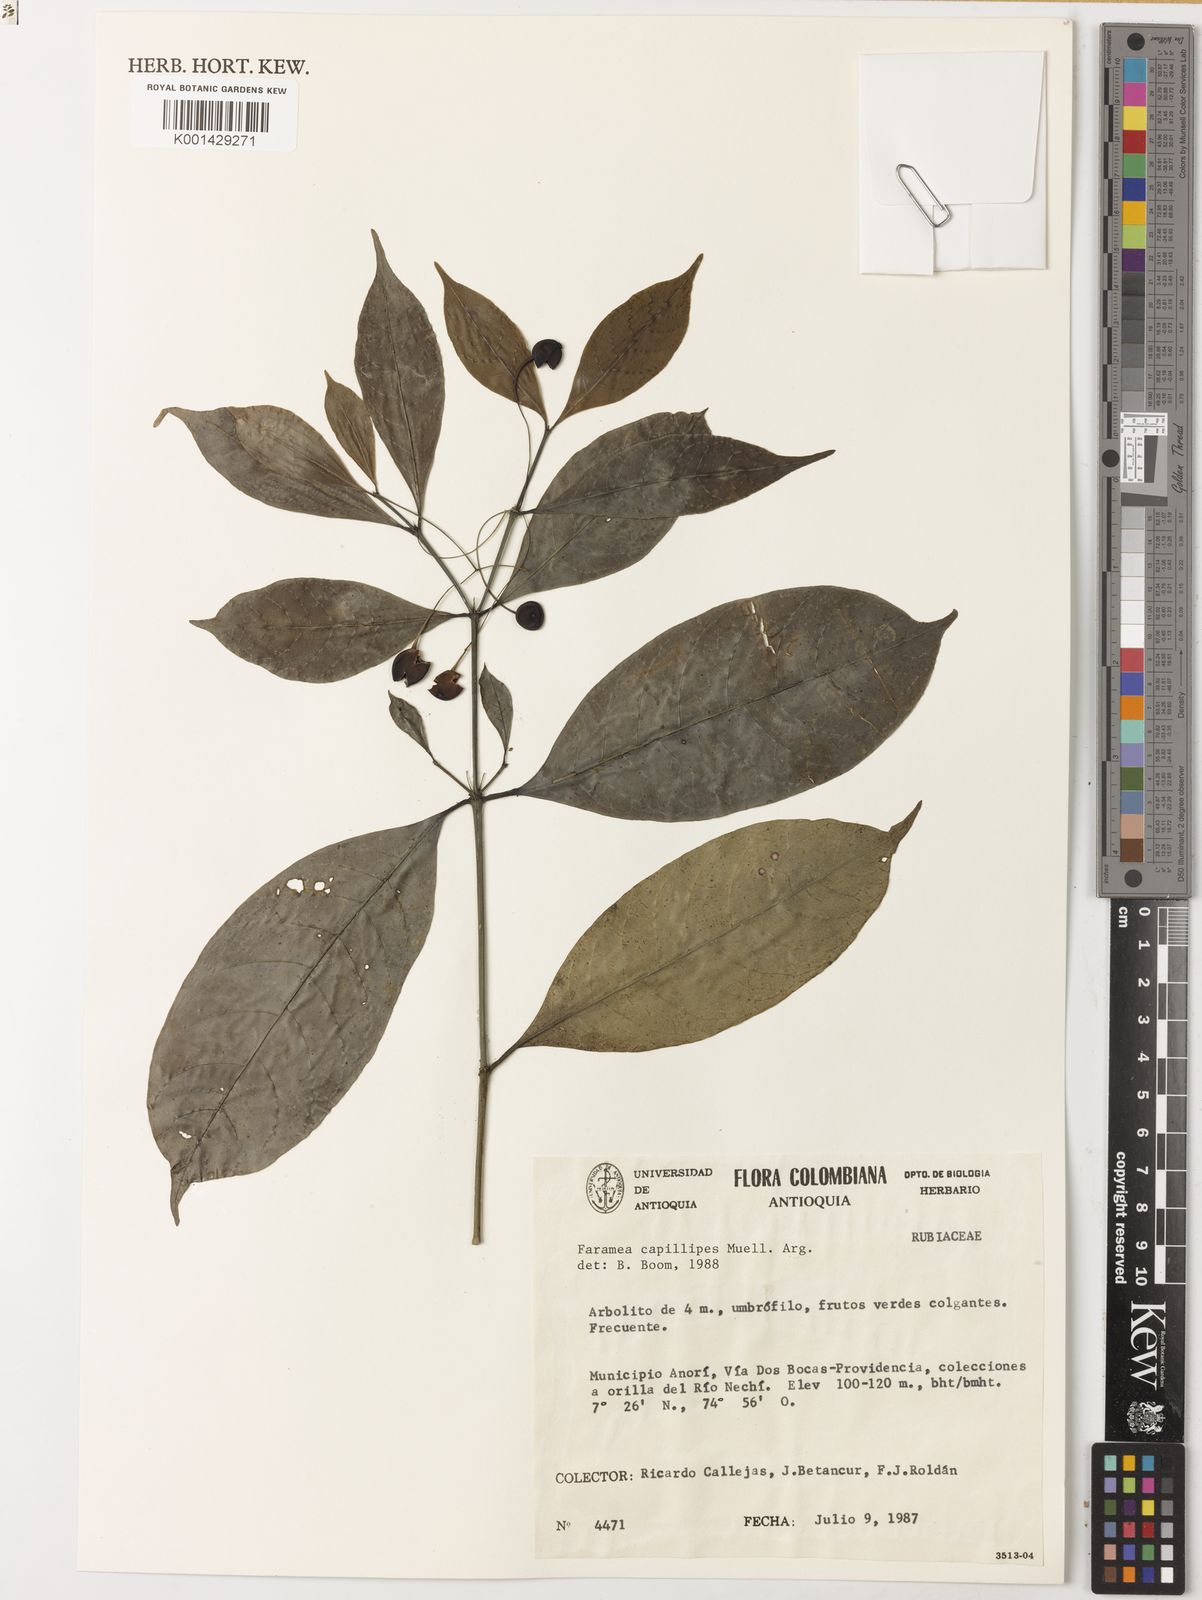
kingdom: Plantae
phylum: Tracheophyta
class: Magnoliopsida
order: Gentianales
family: Rubiaceae
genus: Faramea
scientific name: Faramea
